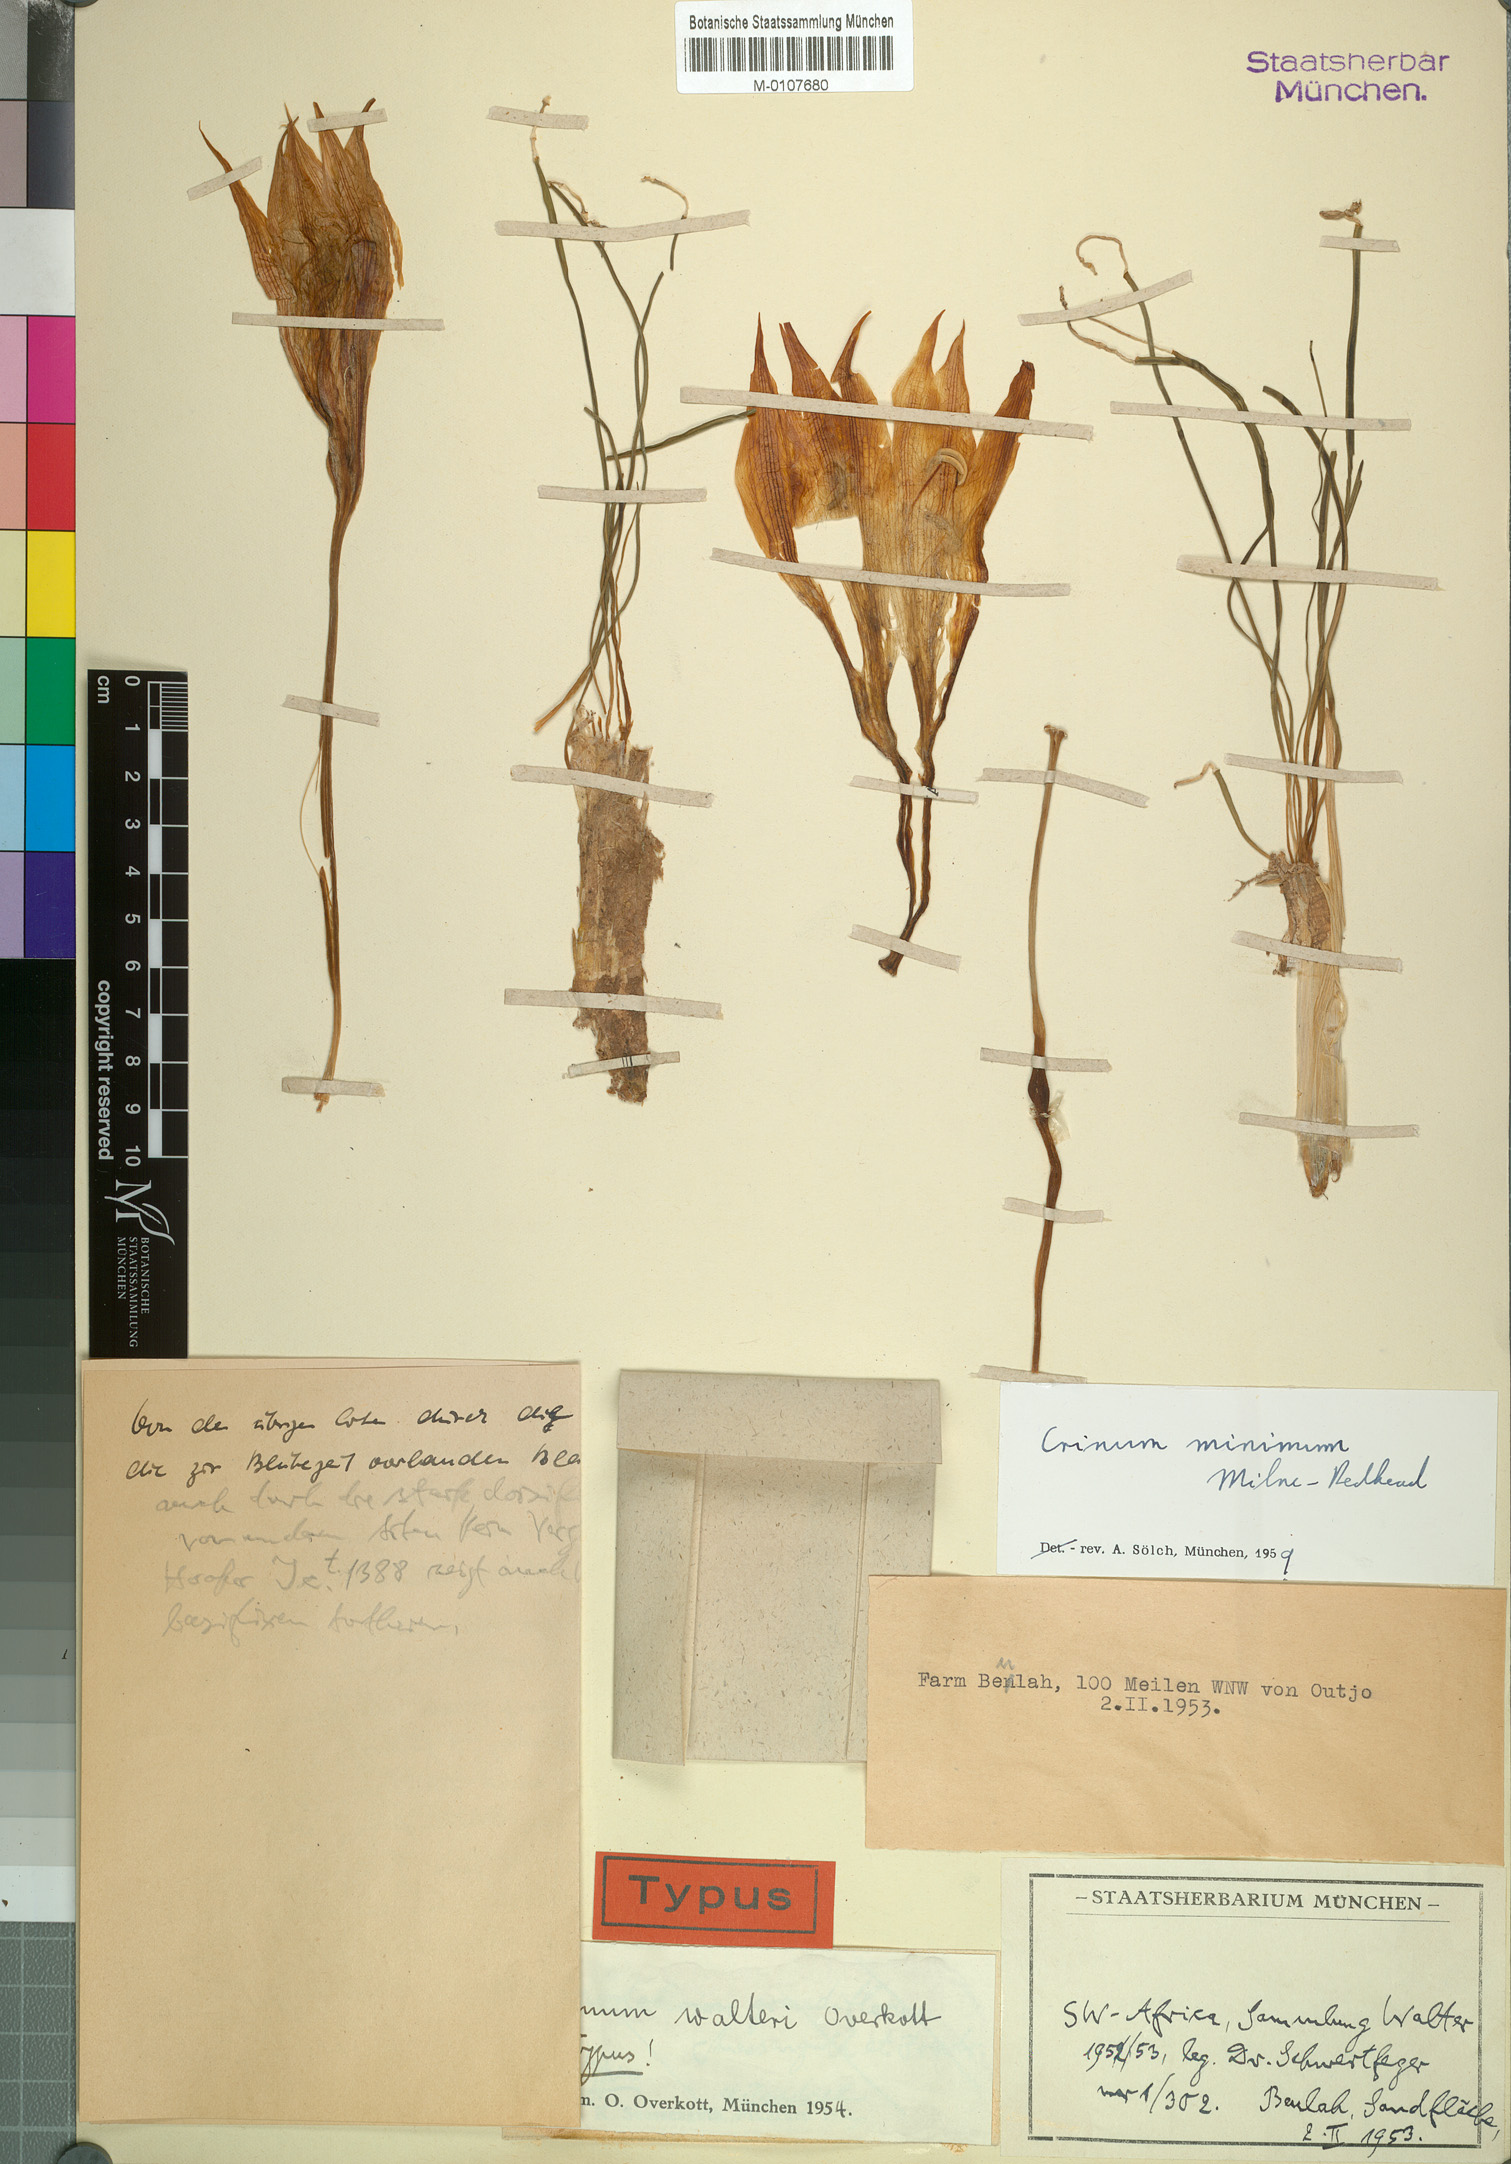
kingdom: Plantae
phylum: Tracheophyta
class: Liliopsida
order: Asparagales
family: Amaryllidaceae
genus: Crinum
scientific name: Crinum minimum
